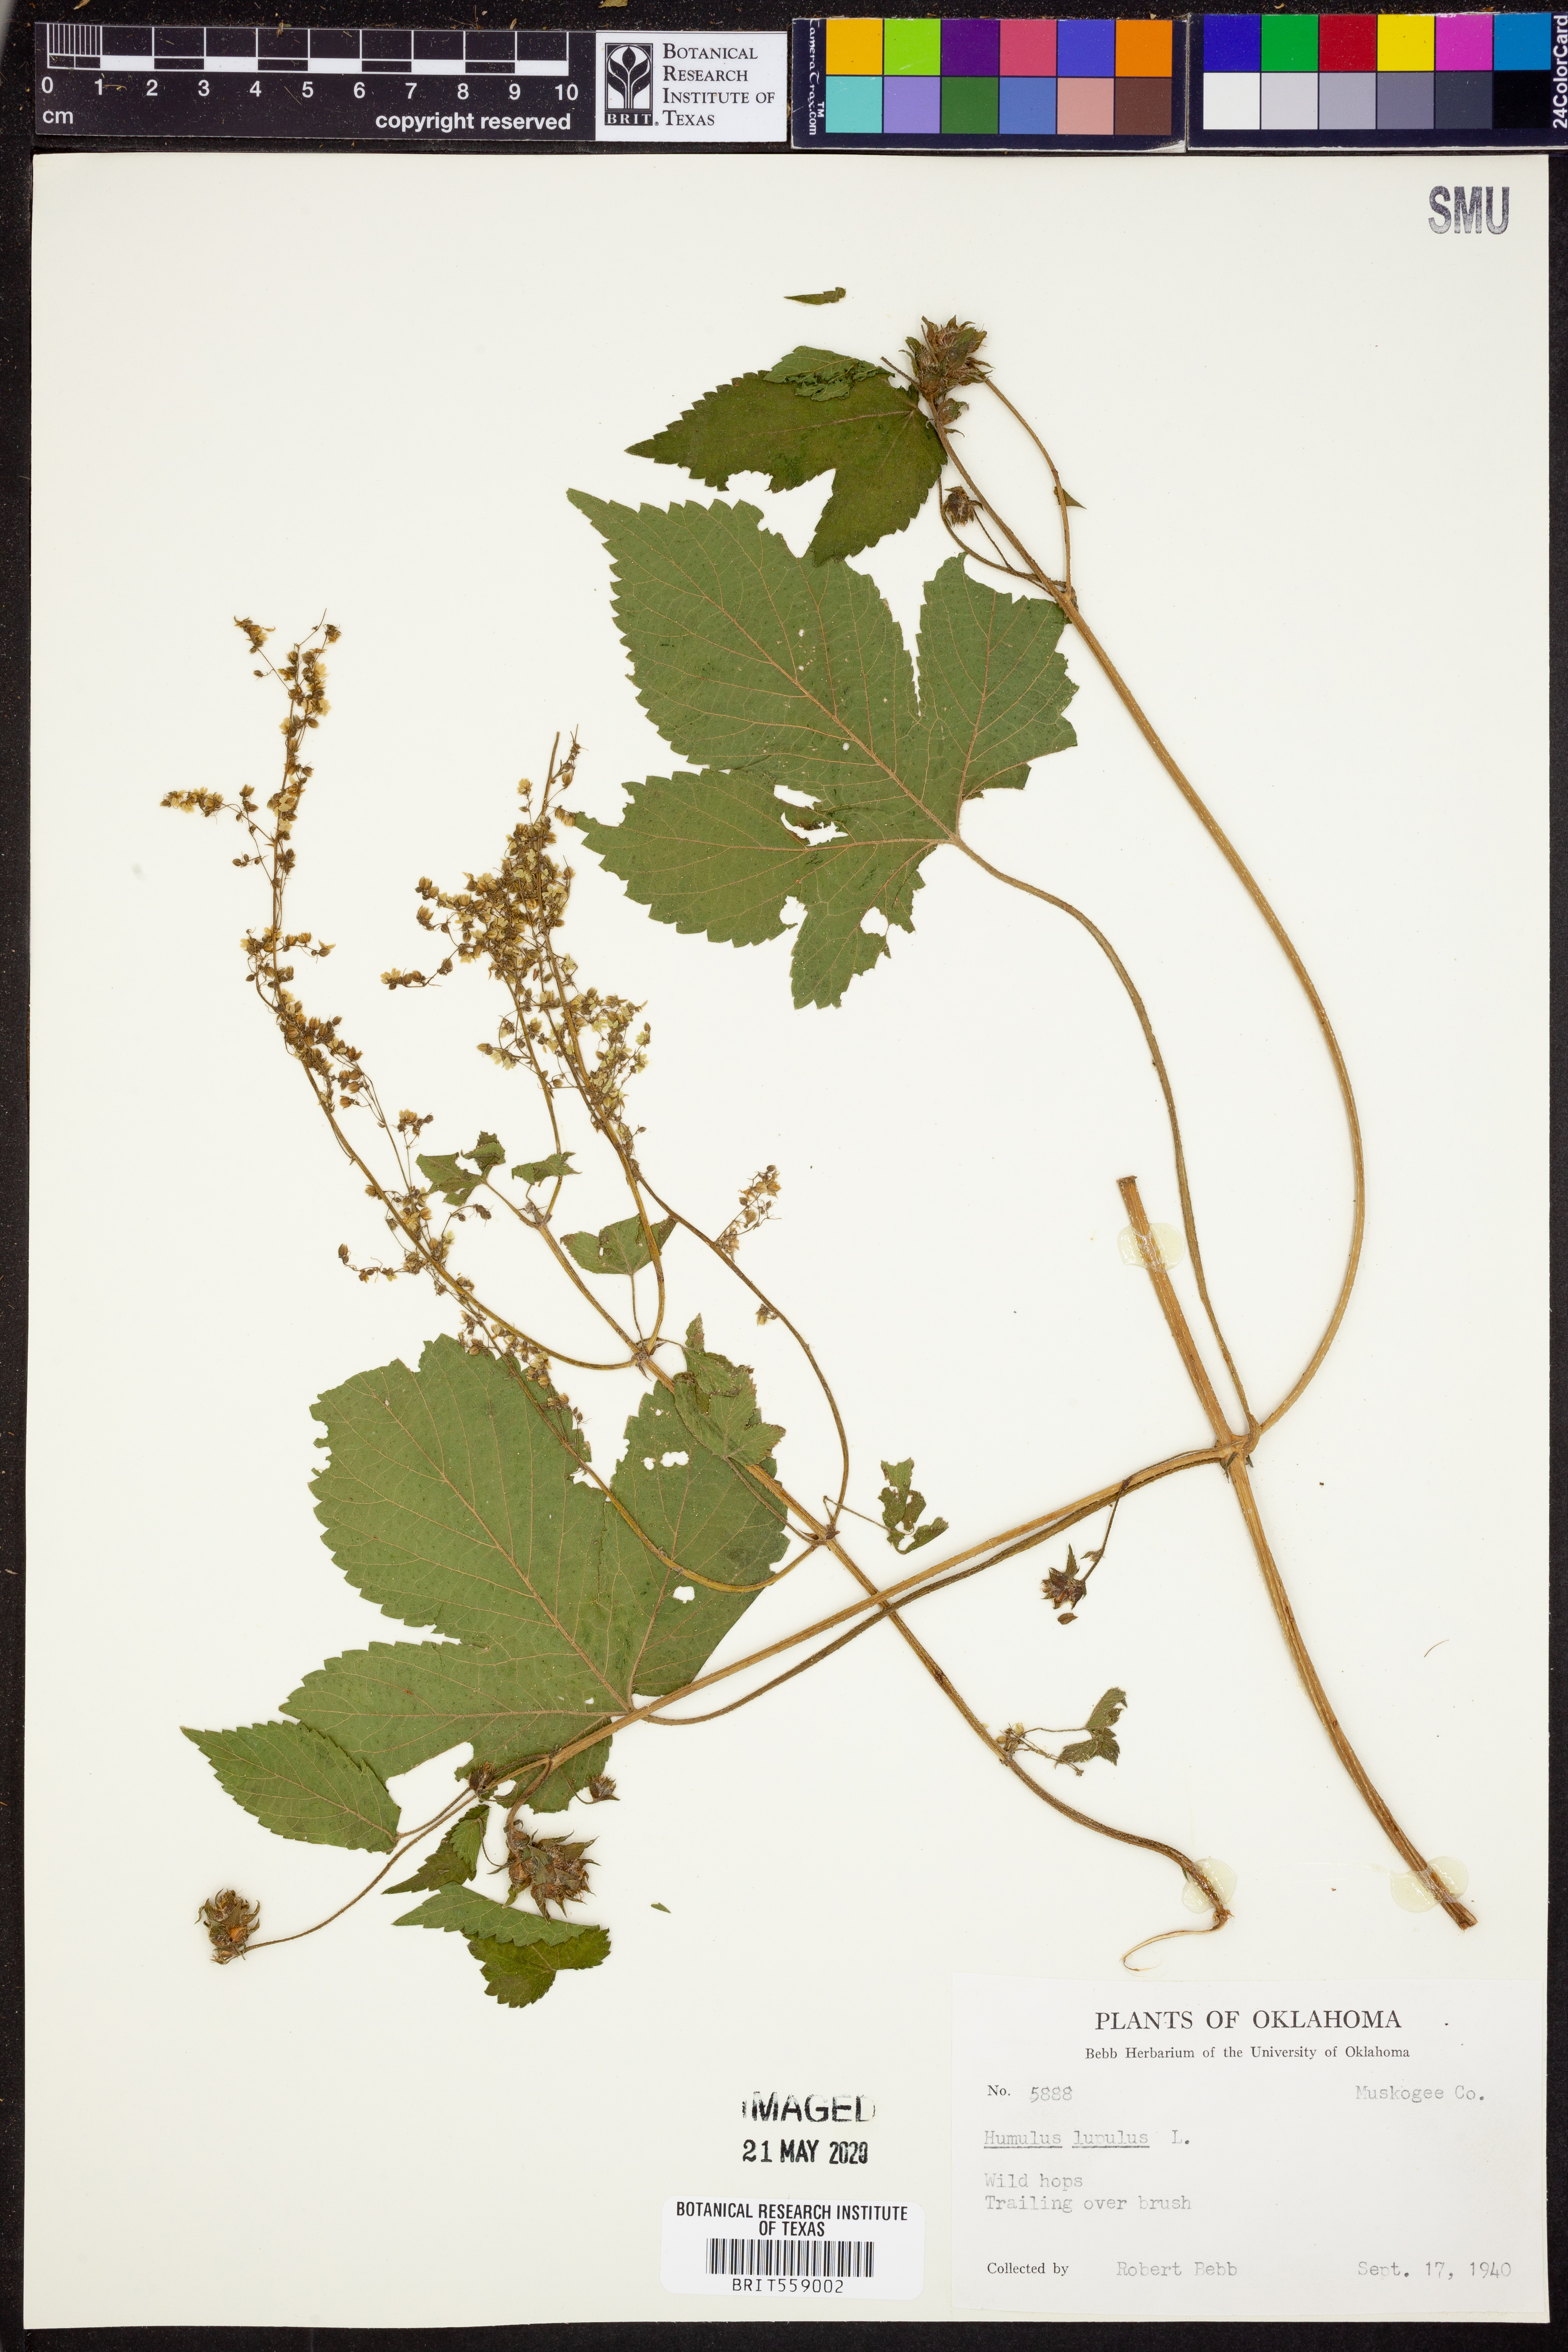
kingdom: Plantae
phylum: Tracheophyta
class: Magnoliopsida
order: Rosales
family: Cannabaceae
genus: Humulus
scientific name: Humulus lupulus
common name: Hop
